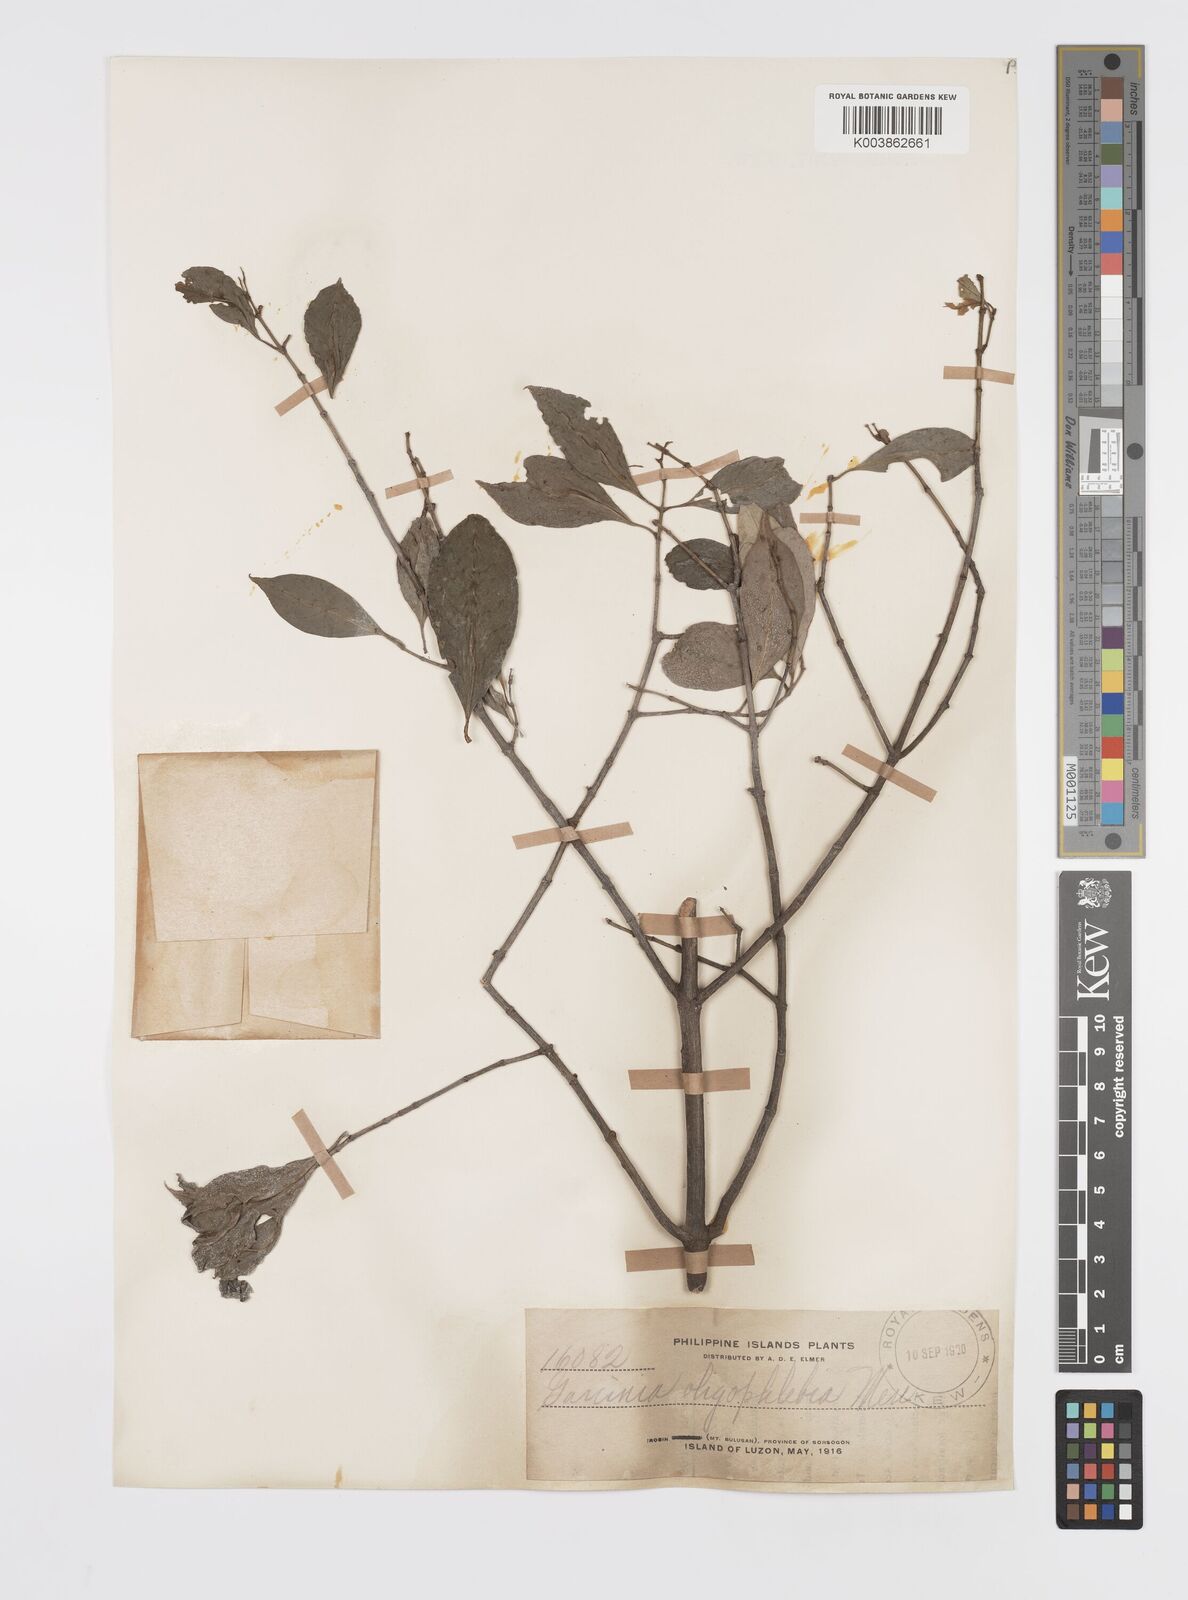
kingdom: Plantae
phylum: Tracheophyta
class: Magnoliopsida
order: Malpighiales
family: Clusiaceae
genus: Garcinia
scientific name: Garcinia rubra
